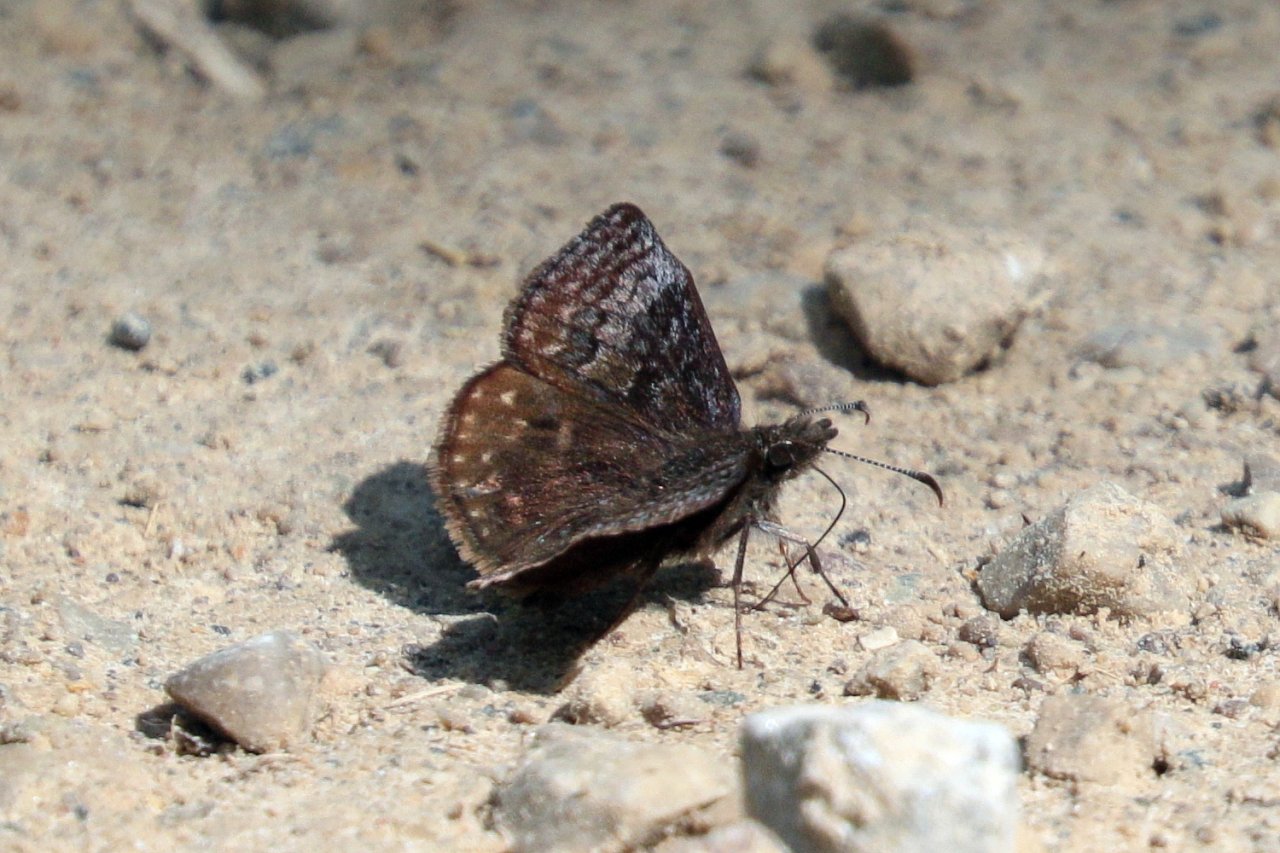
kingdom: Animalia
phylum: Arthropoda
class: Insecta
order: Lepidoptera
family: Hesperiidae
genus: Erynnis
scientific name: Erynnis icelus
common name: Dreamy Duskywing
